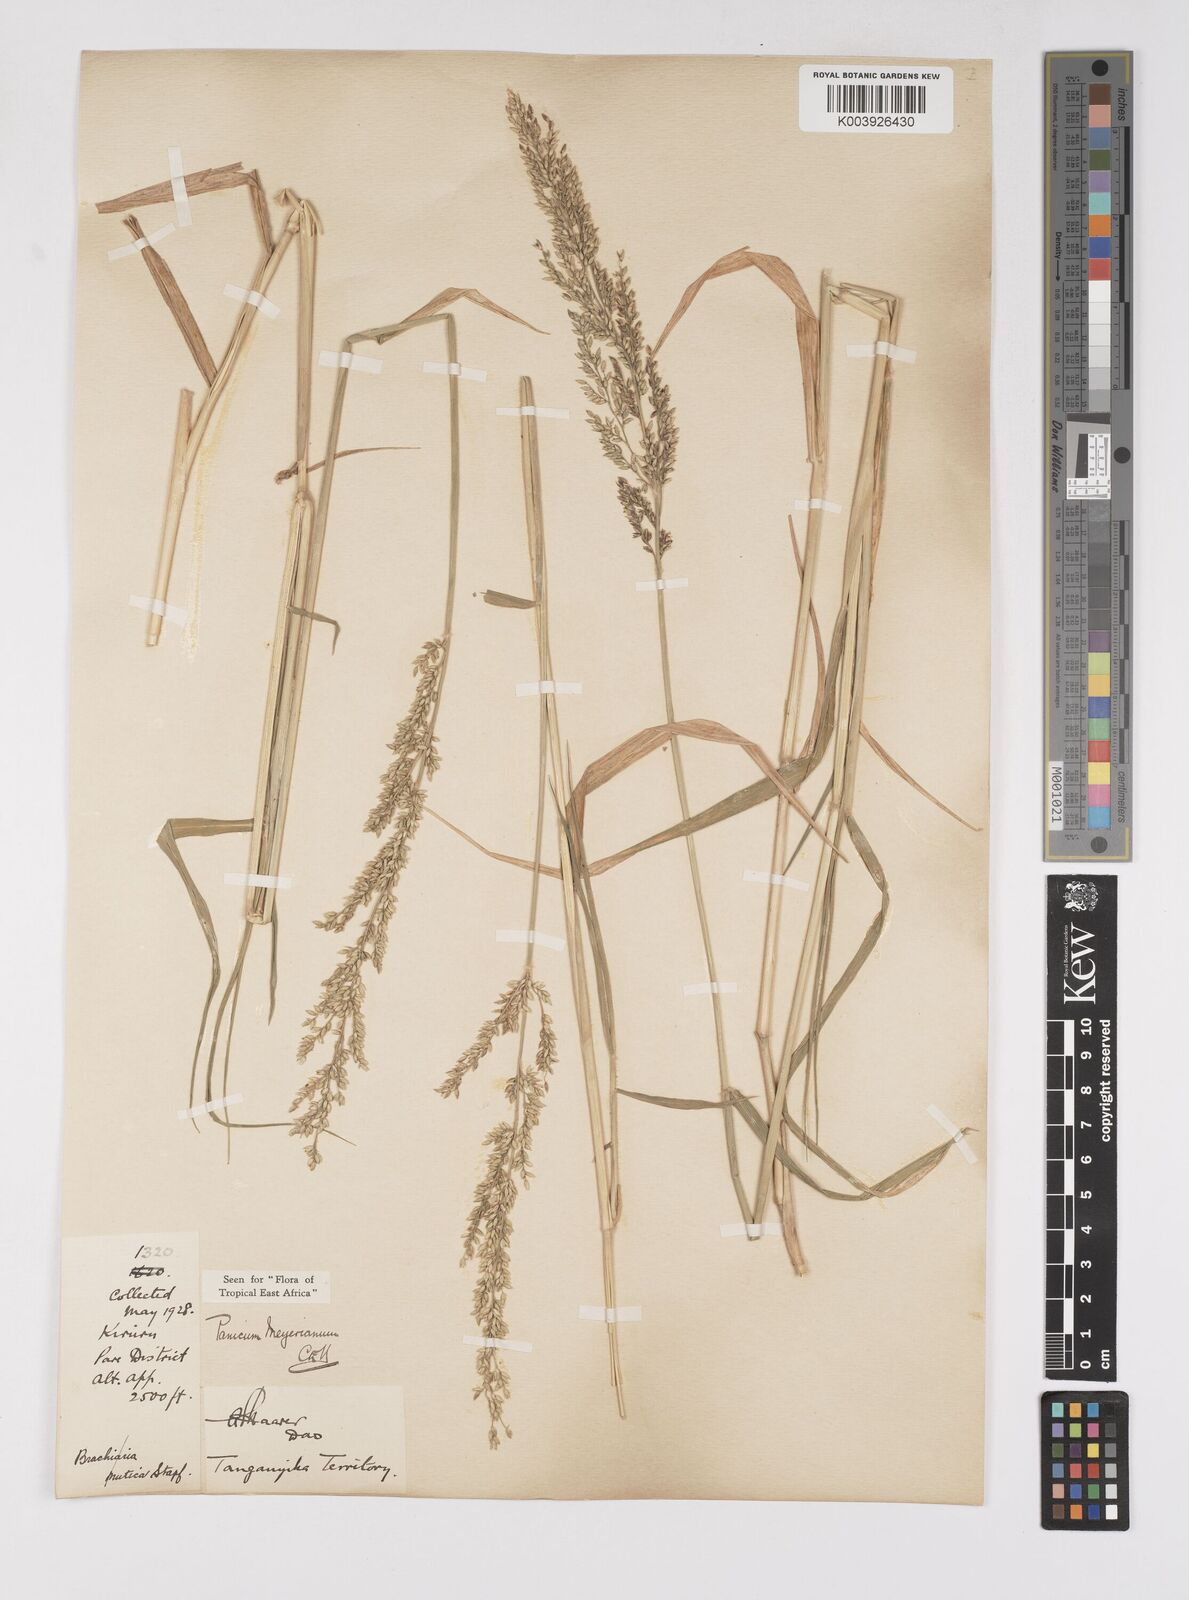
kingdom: Plantae
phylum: Tracheophyta
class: Liliopsida
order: Poales
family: Poaceae
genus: Eriochloa
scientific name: Eriochloa meyeriana
